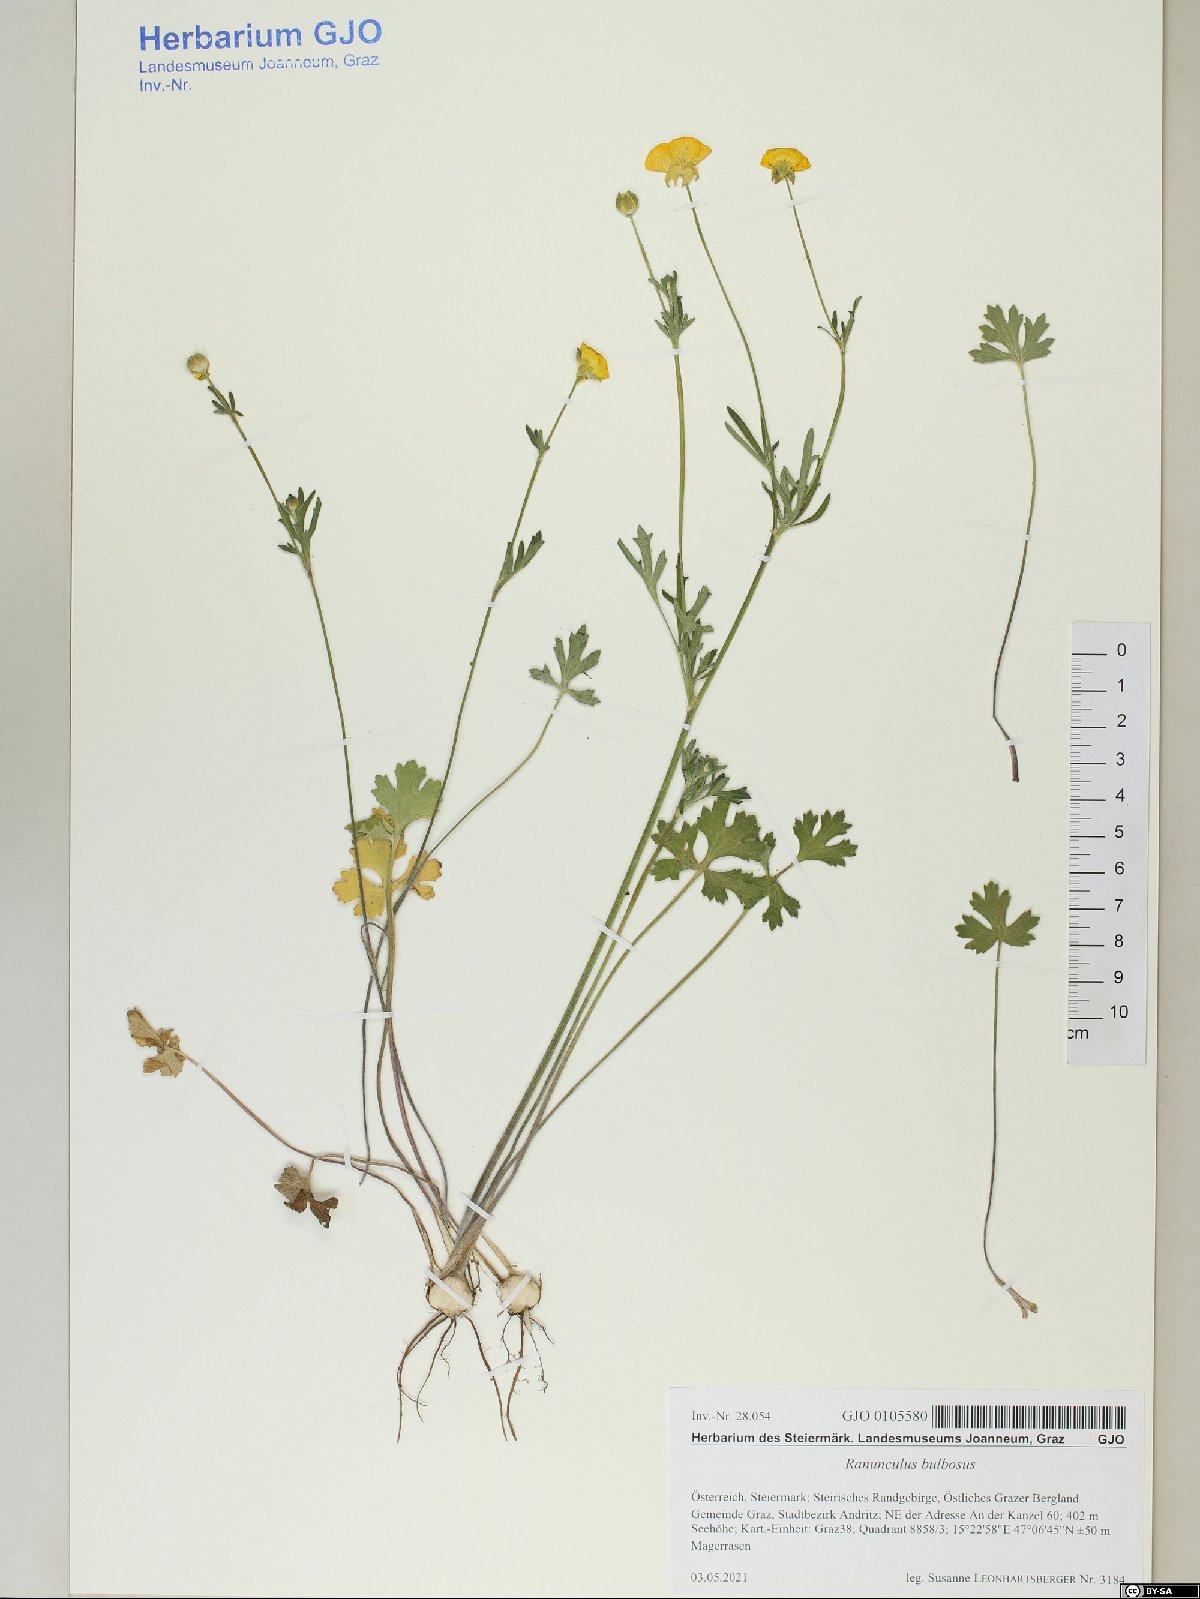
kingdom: Plantae
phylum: Tracheophyta
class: Magnoliopsida
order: Ranunculales
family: Ranunculaceae
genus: Ranunculus
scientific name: Ranunculus bulbosus
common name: Bulbous buttercup
